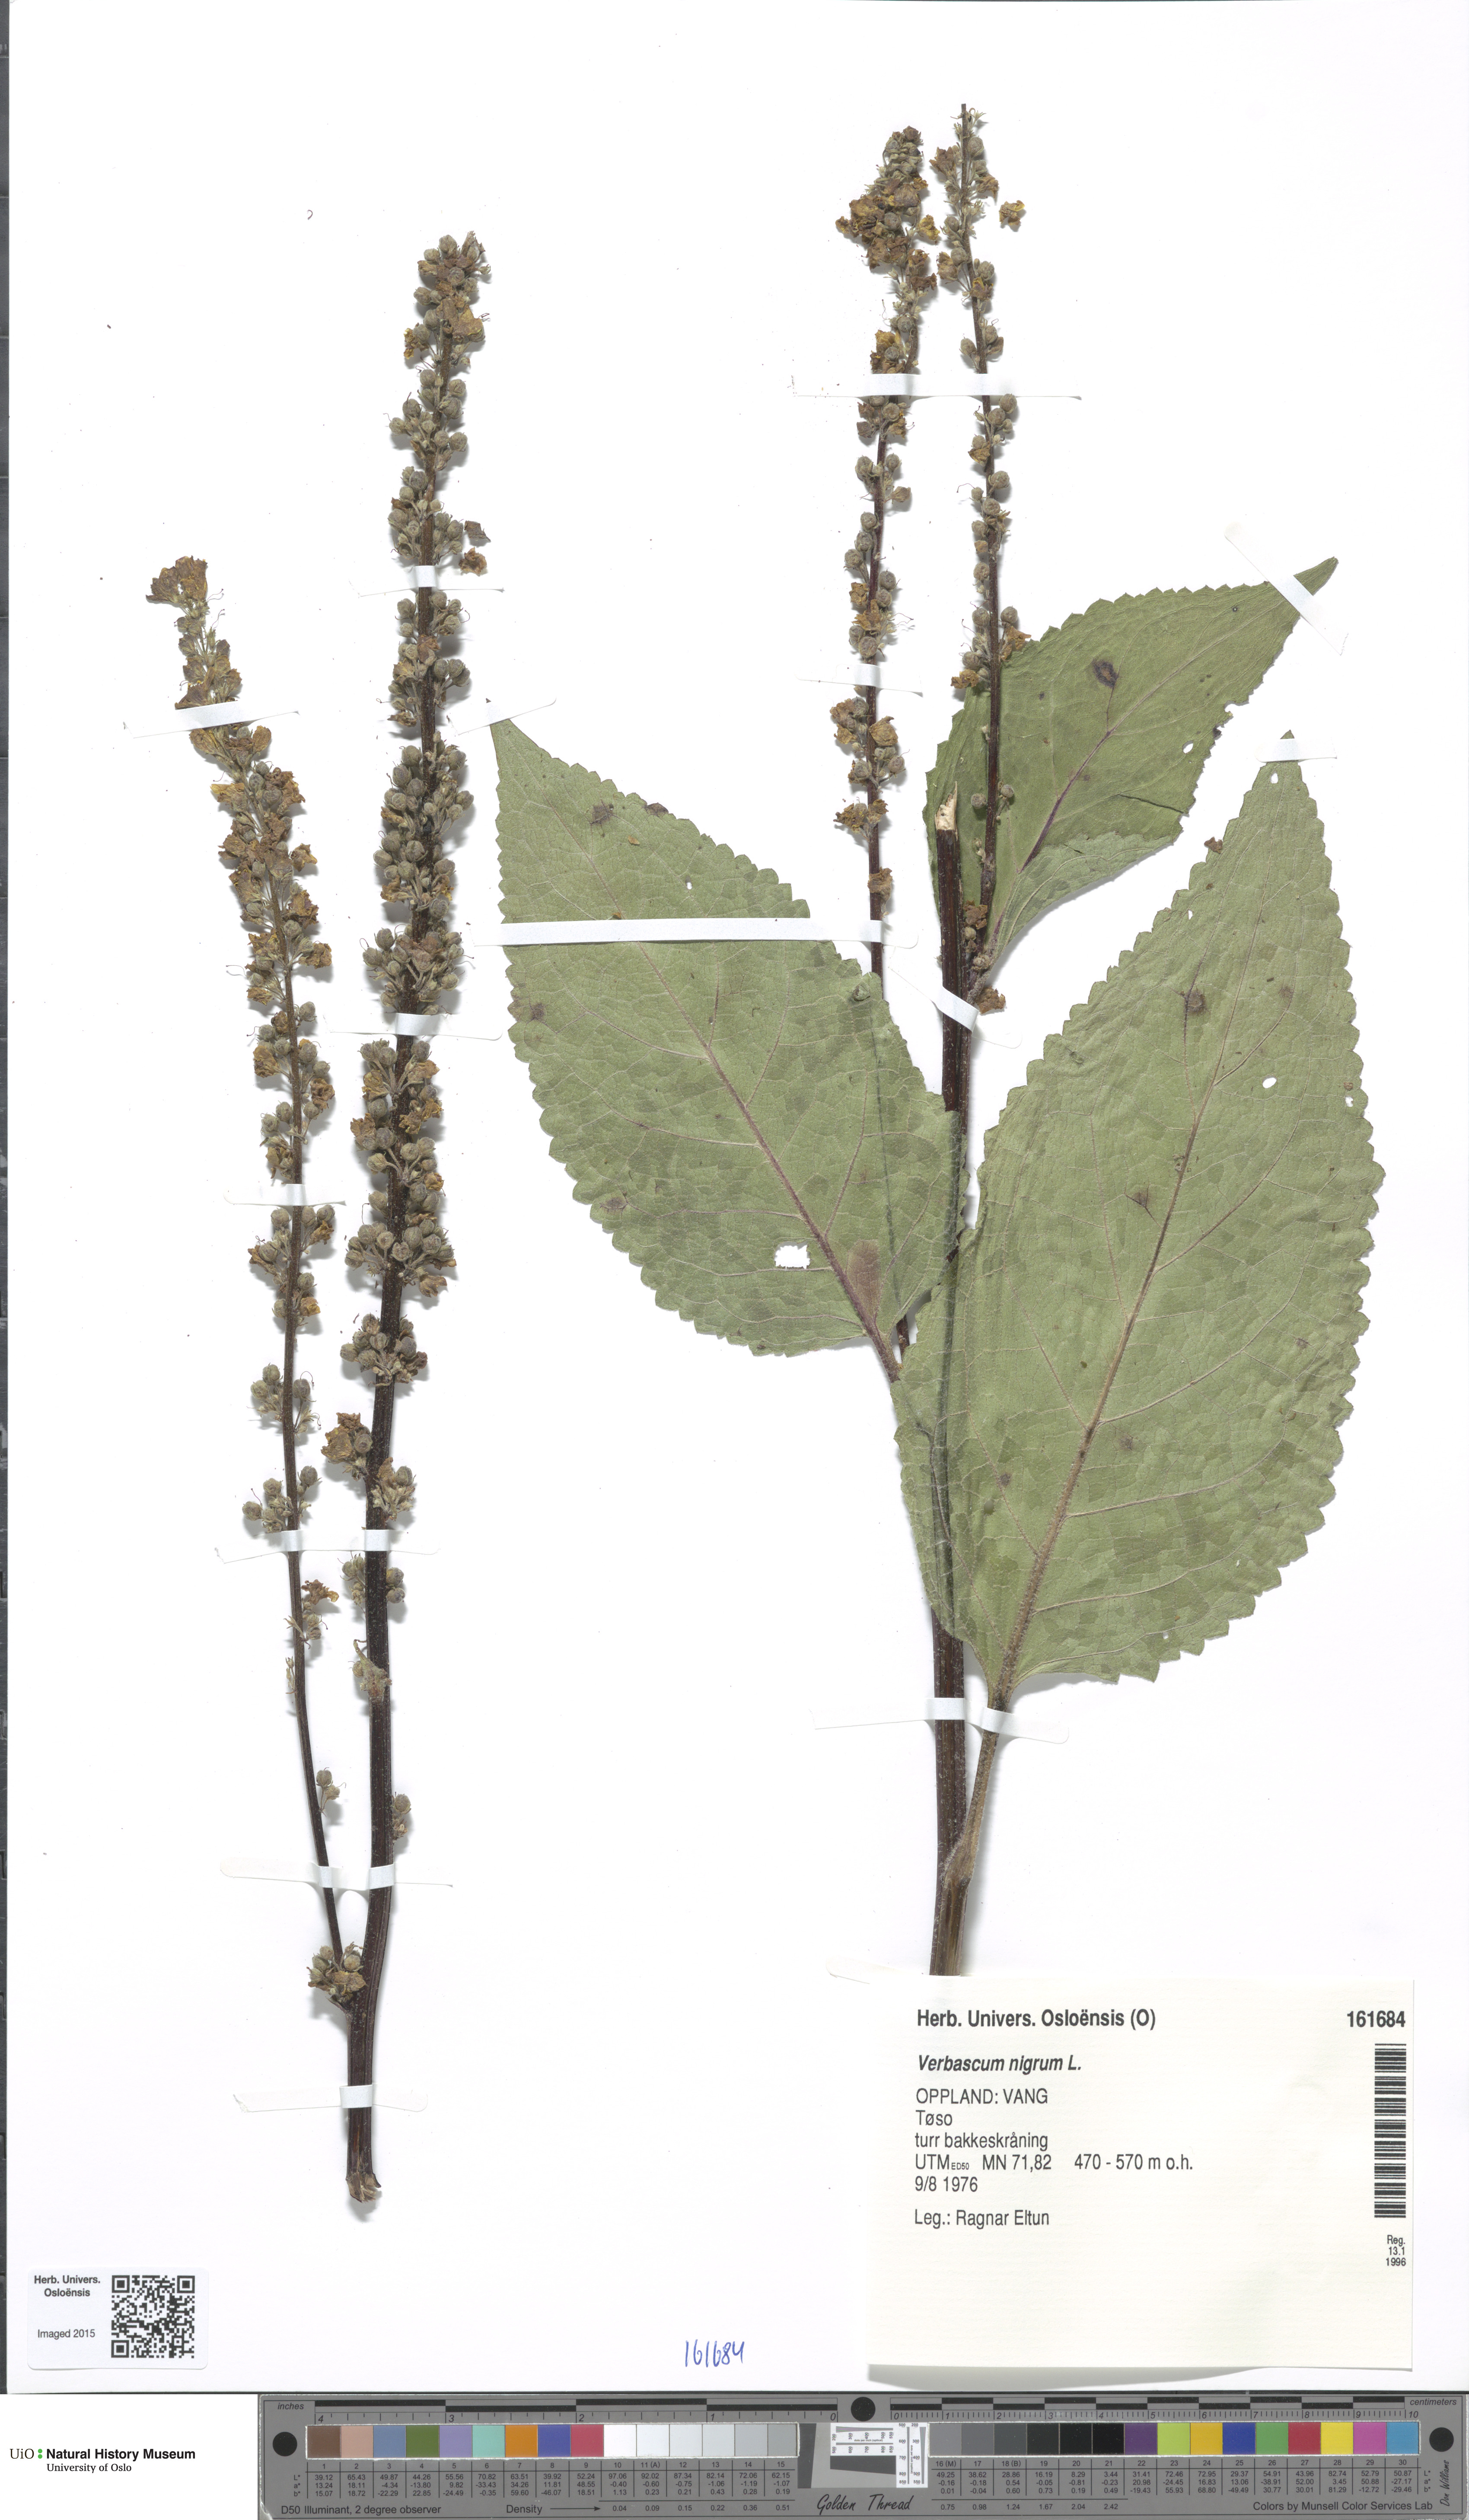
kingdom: Plantae
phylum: Tracheophyta
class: Magnoliopsida
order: Lamiales
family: Scrophulariaceae
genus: Verbascum
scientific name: Verbascum nigrum
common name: Dark mullein
